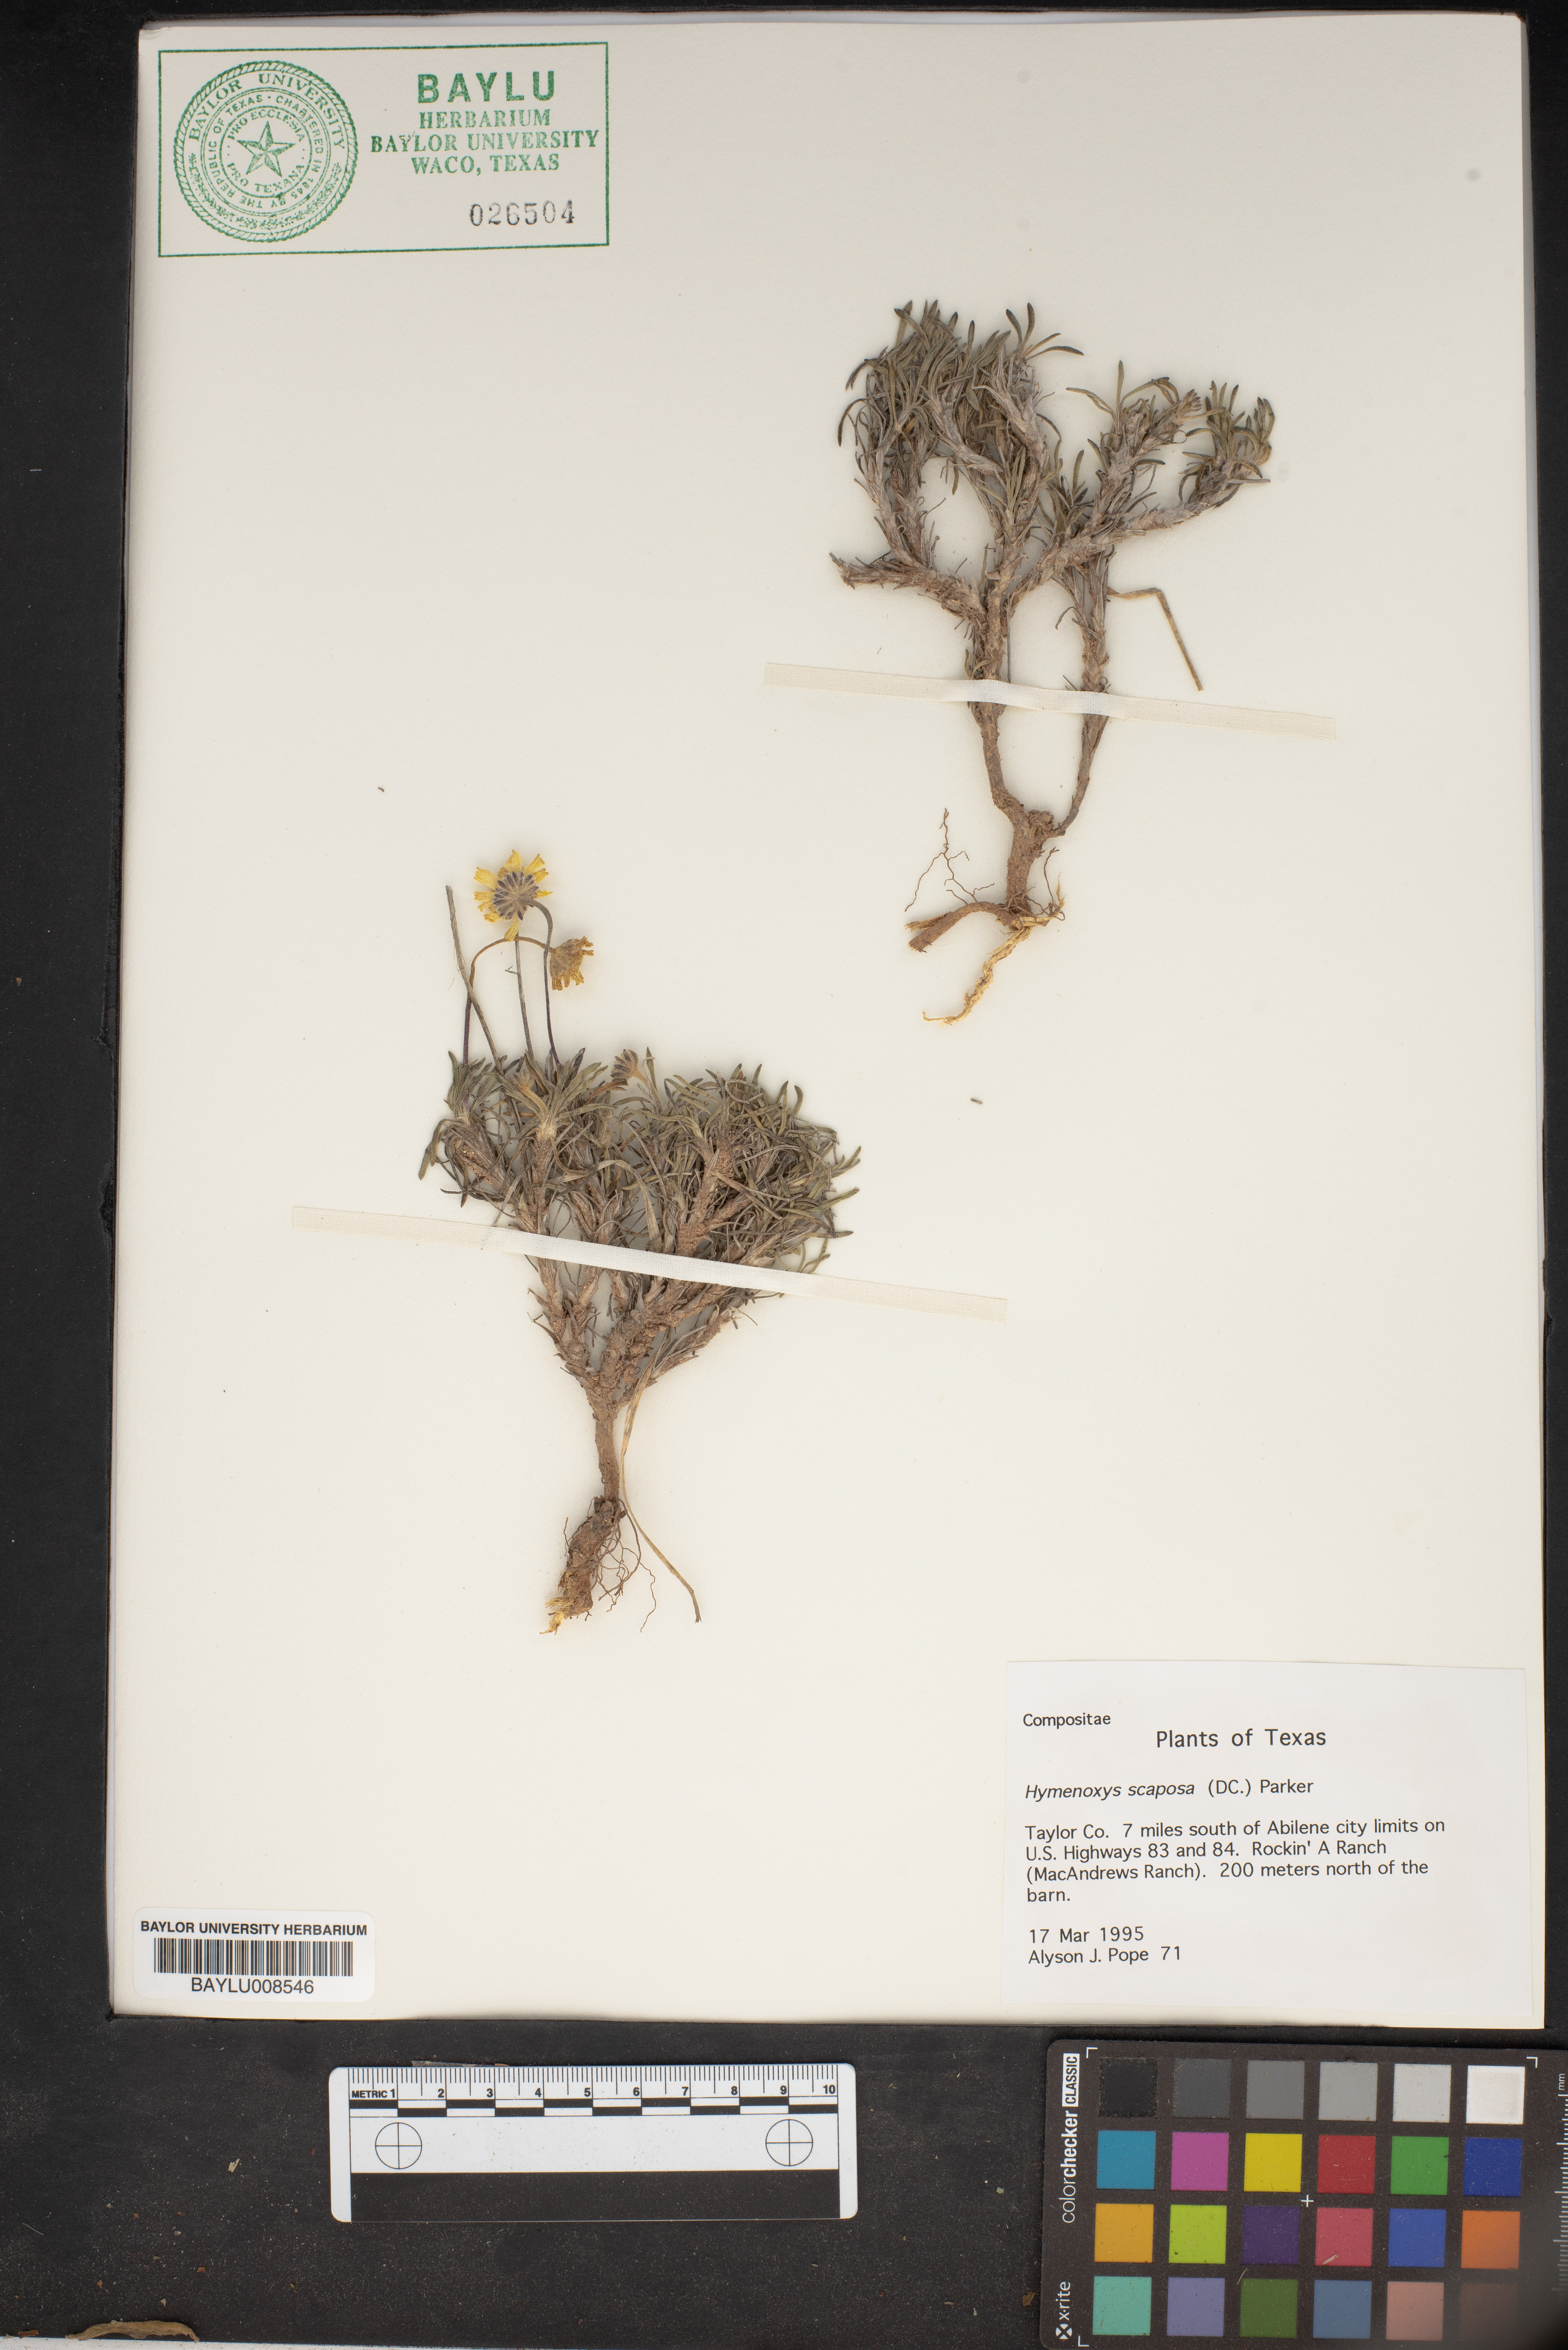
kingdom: Plantae
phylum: Tracheophyta
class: Magnoliopsida
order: Asterales
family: Asteraceae
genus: Tetraneuris
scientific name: Tetraneuris scaposa
